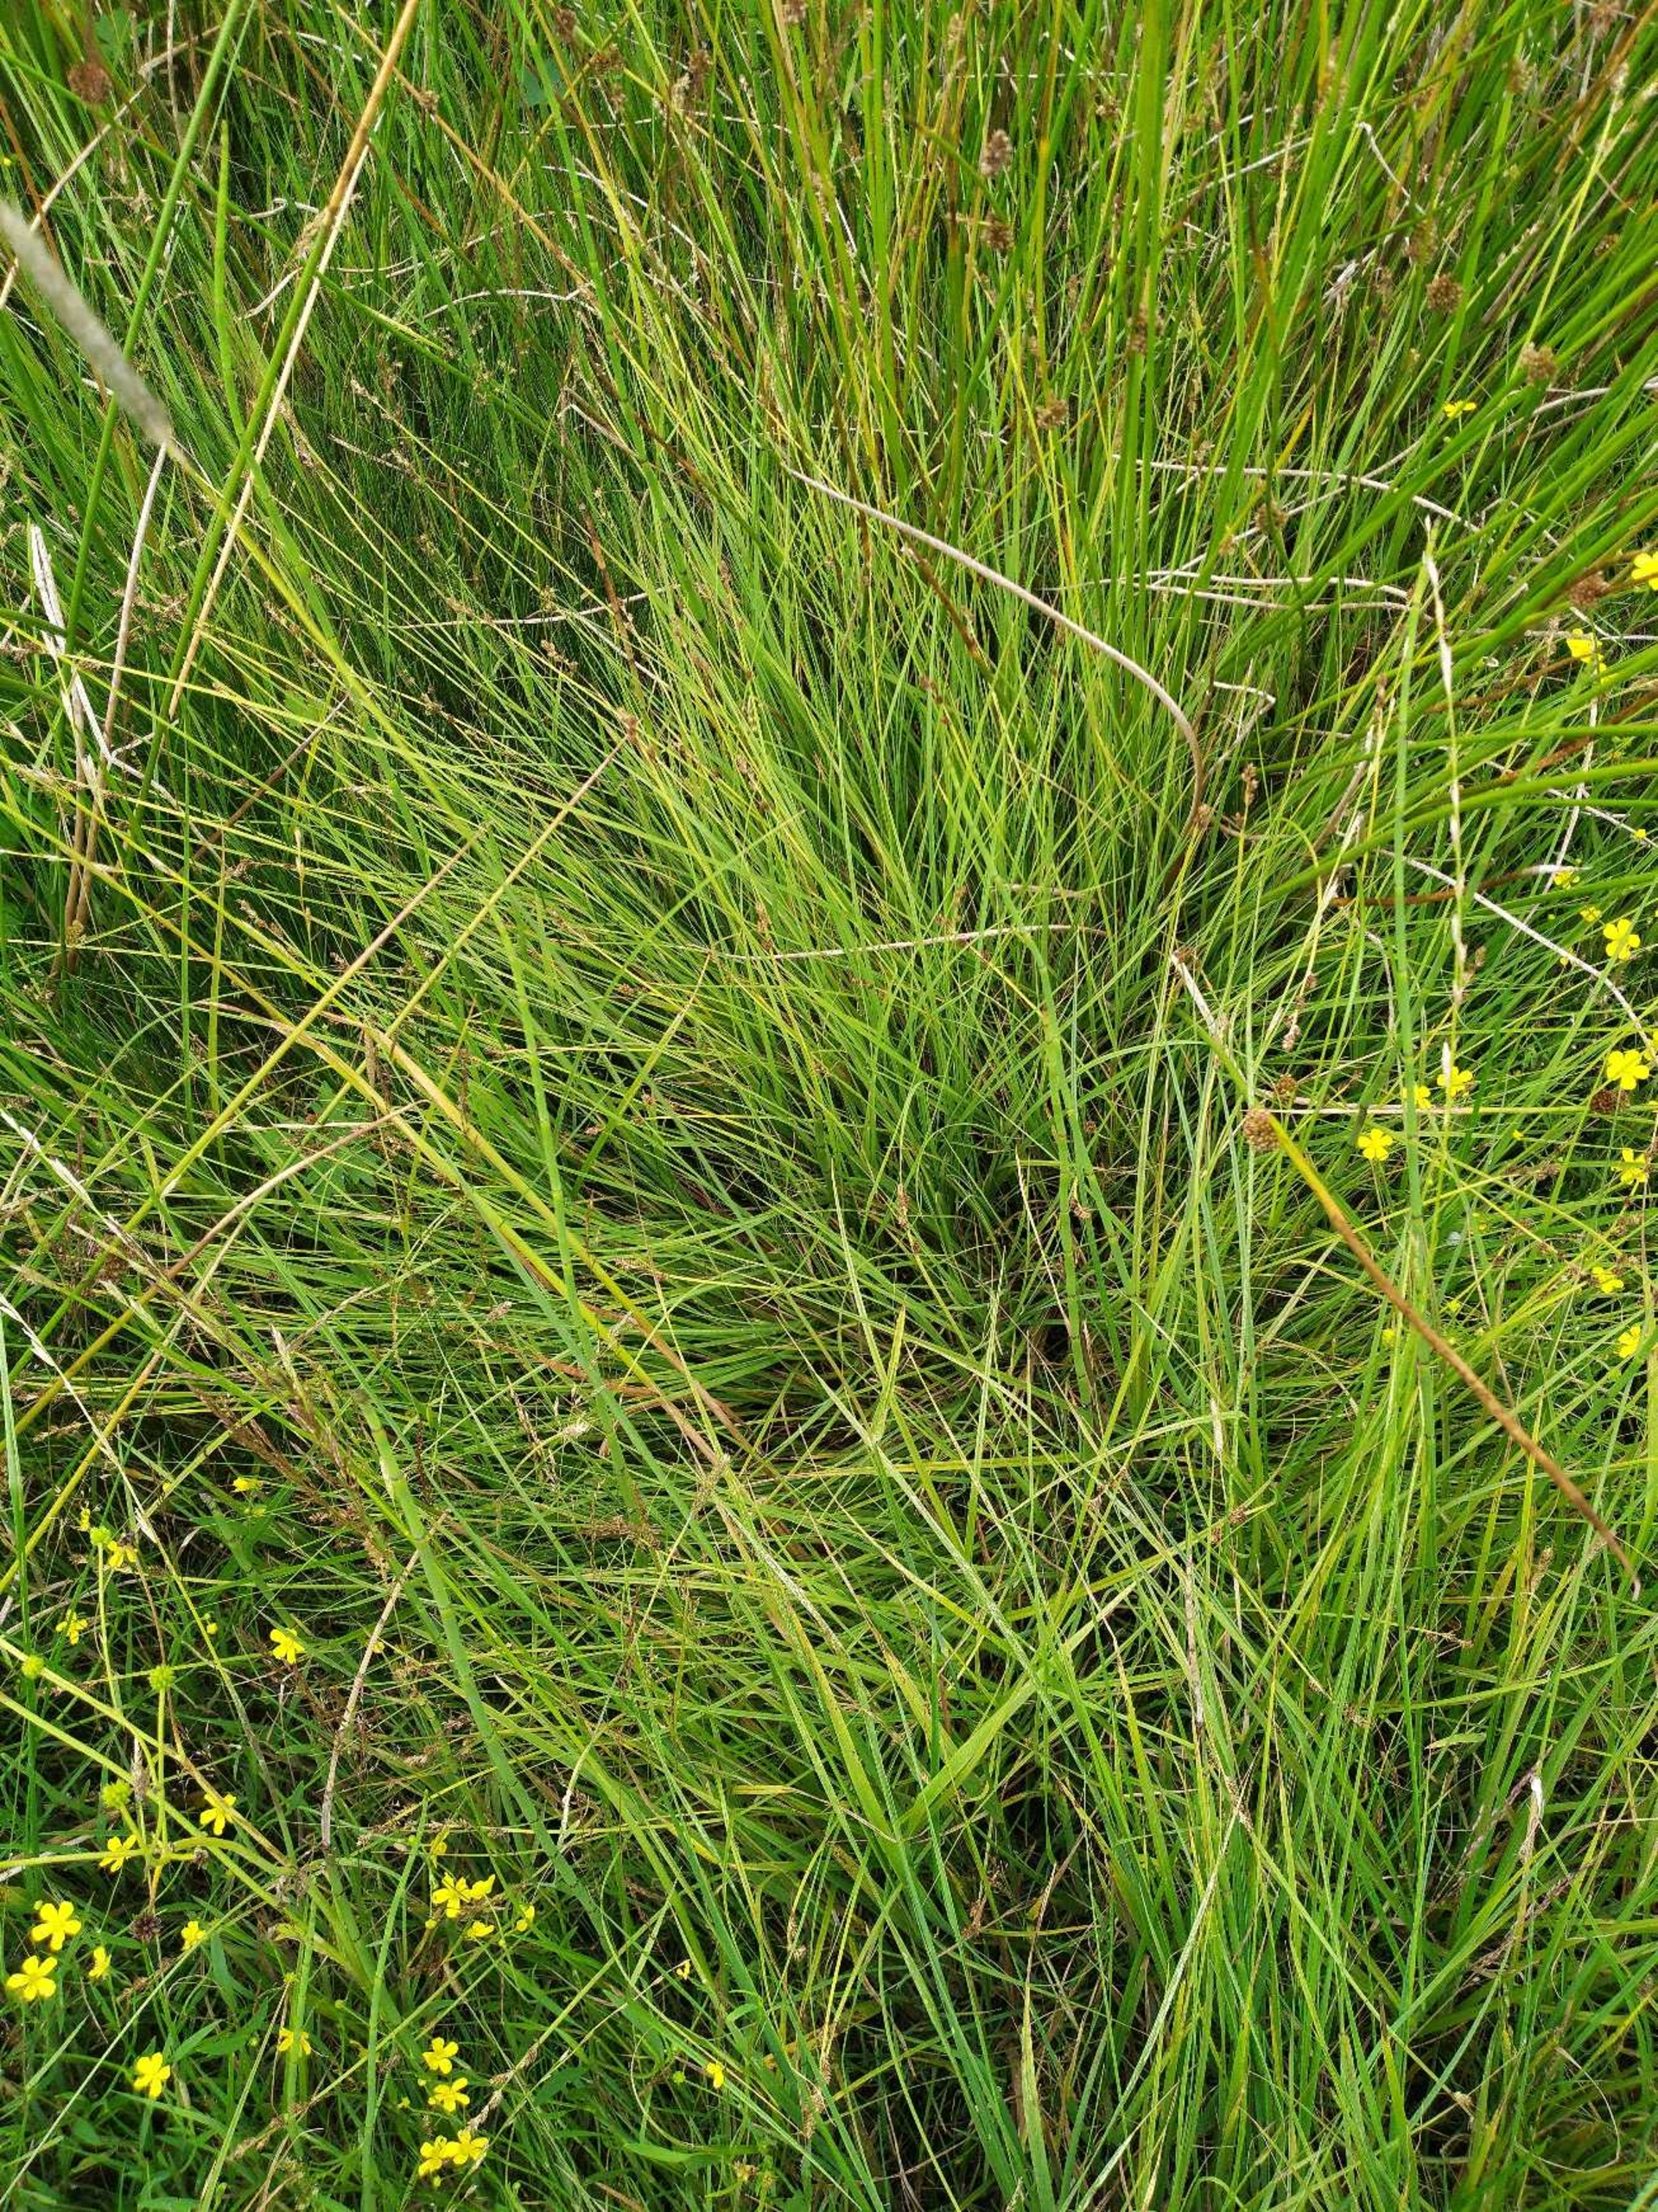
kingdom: Plantae
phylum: Tracheophyta
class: Liliopsida
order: Poales
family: Cyperaceae
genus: Carex
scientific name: Carex canescens
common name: Grå star
